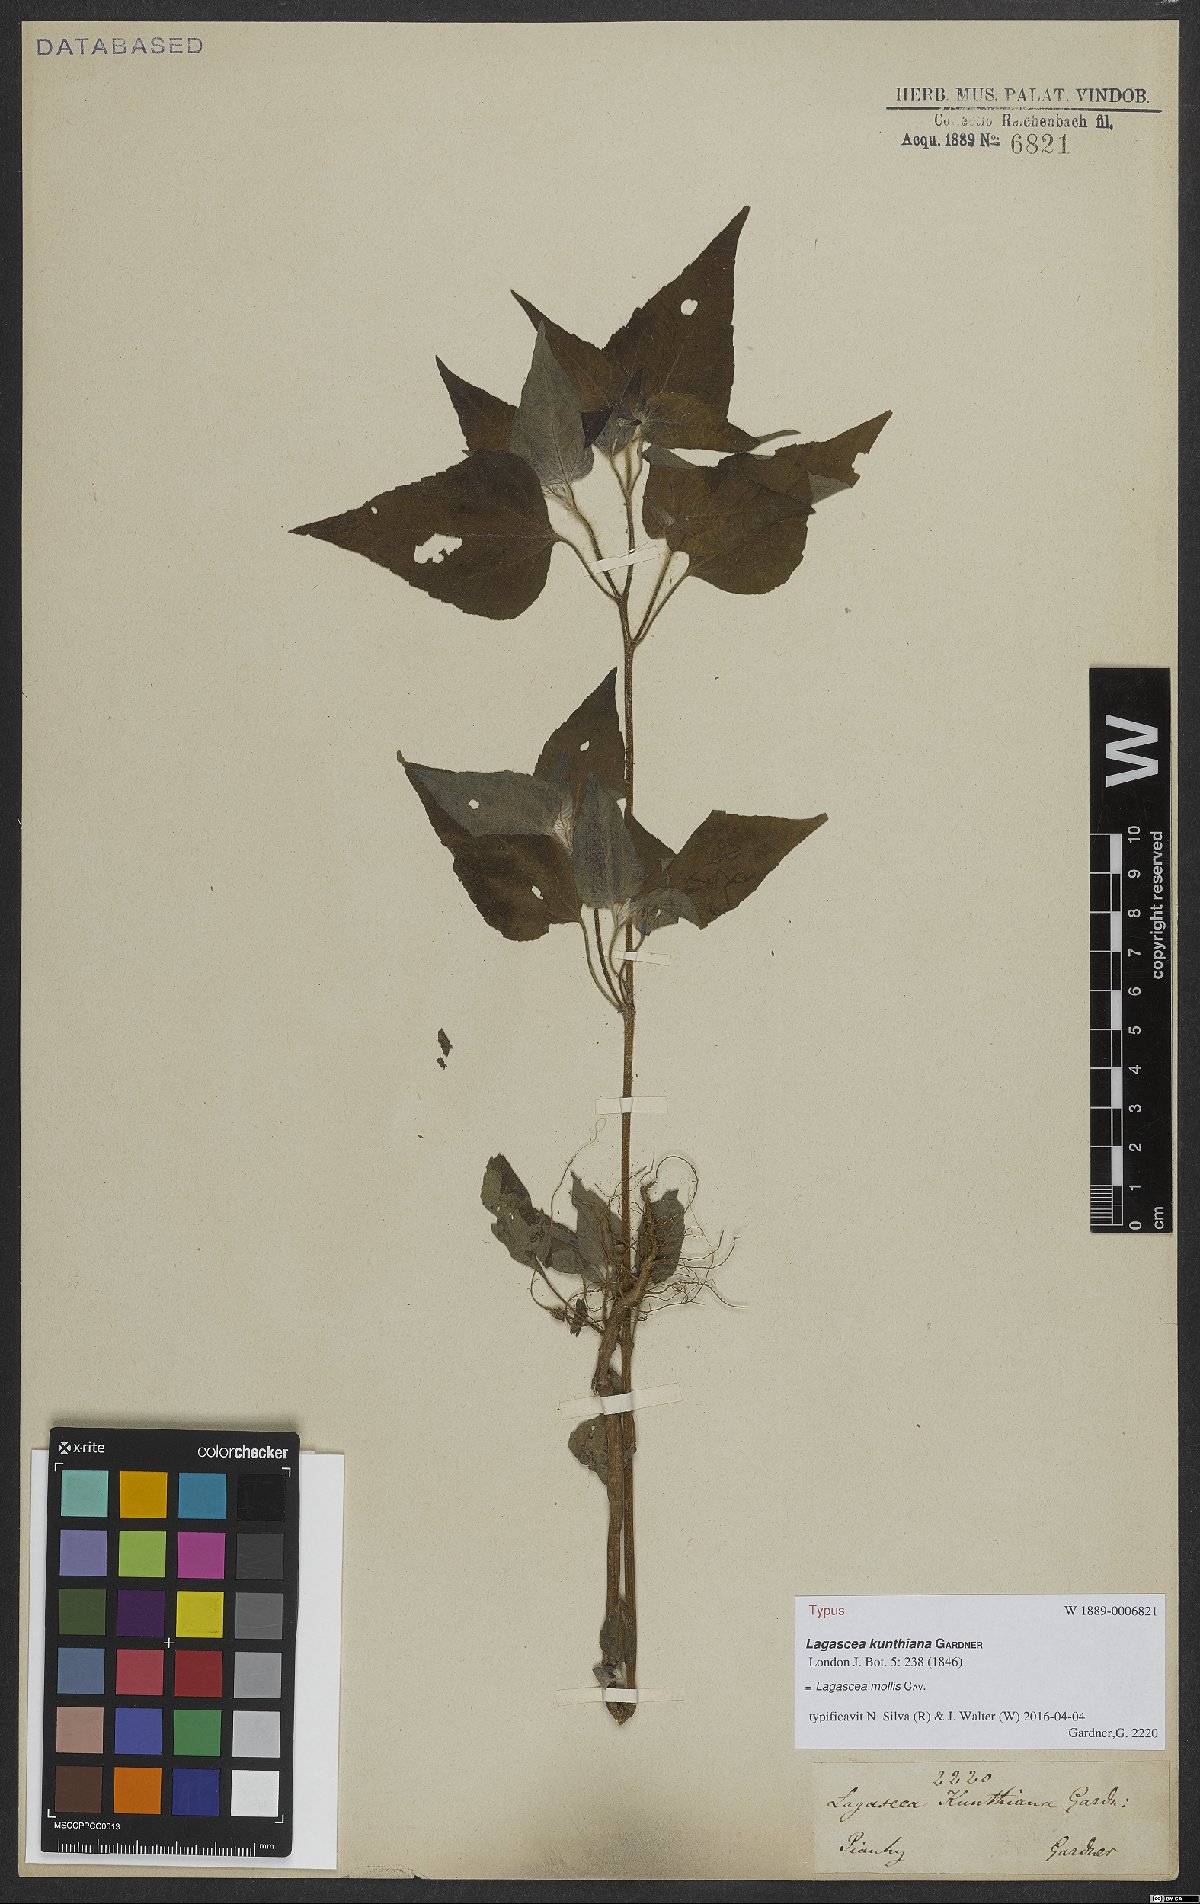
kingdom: Plantae
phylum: Tracheophyta
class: Magnoliopsida
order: Asterales
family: Asteraceae
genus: Lagascea
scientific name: Lagascea mollis
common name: Silkleaf
